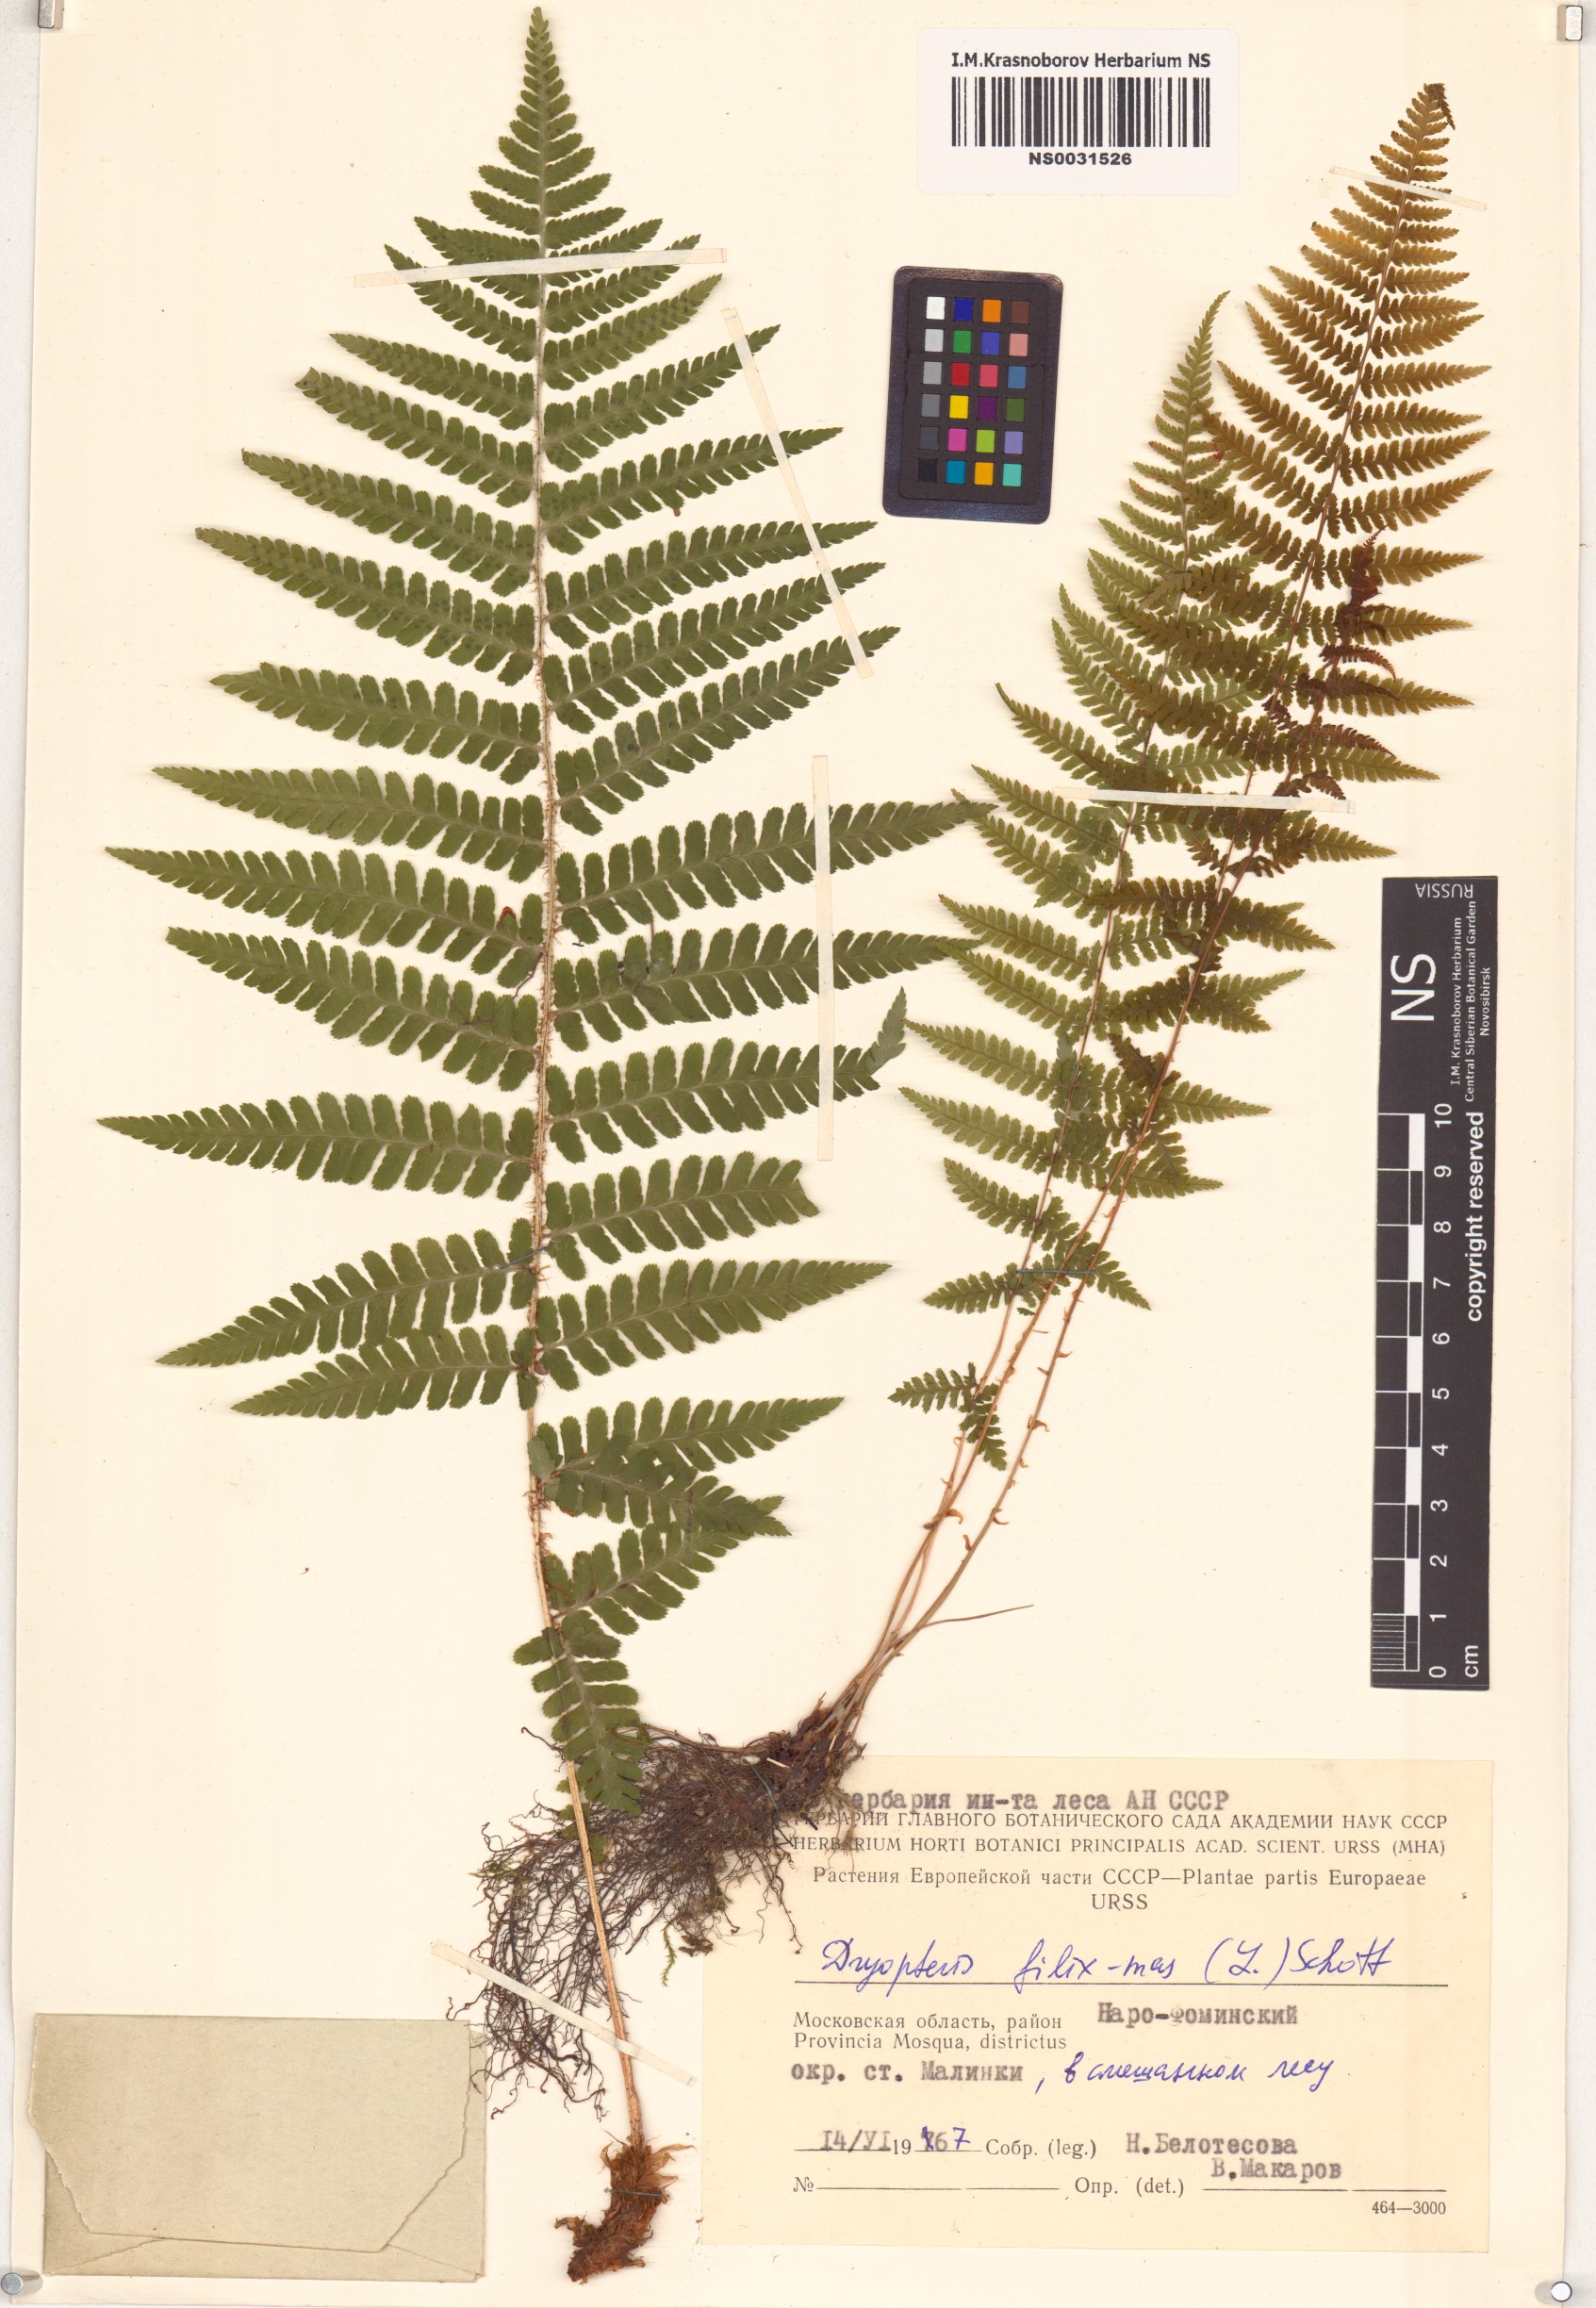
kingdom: Plantae
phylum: Tracheophyta
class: Polypodiopsida
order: Polypodiales
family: Dryopteridaceae
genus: Dryopteris
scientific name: Dryopteris filix-mas
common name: Male fern
